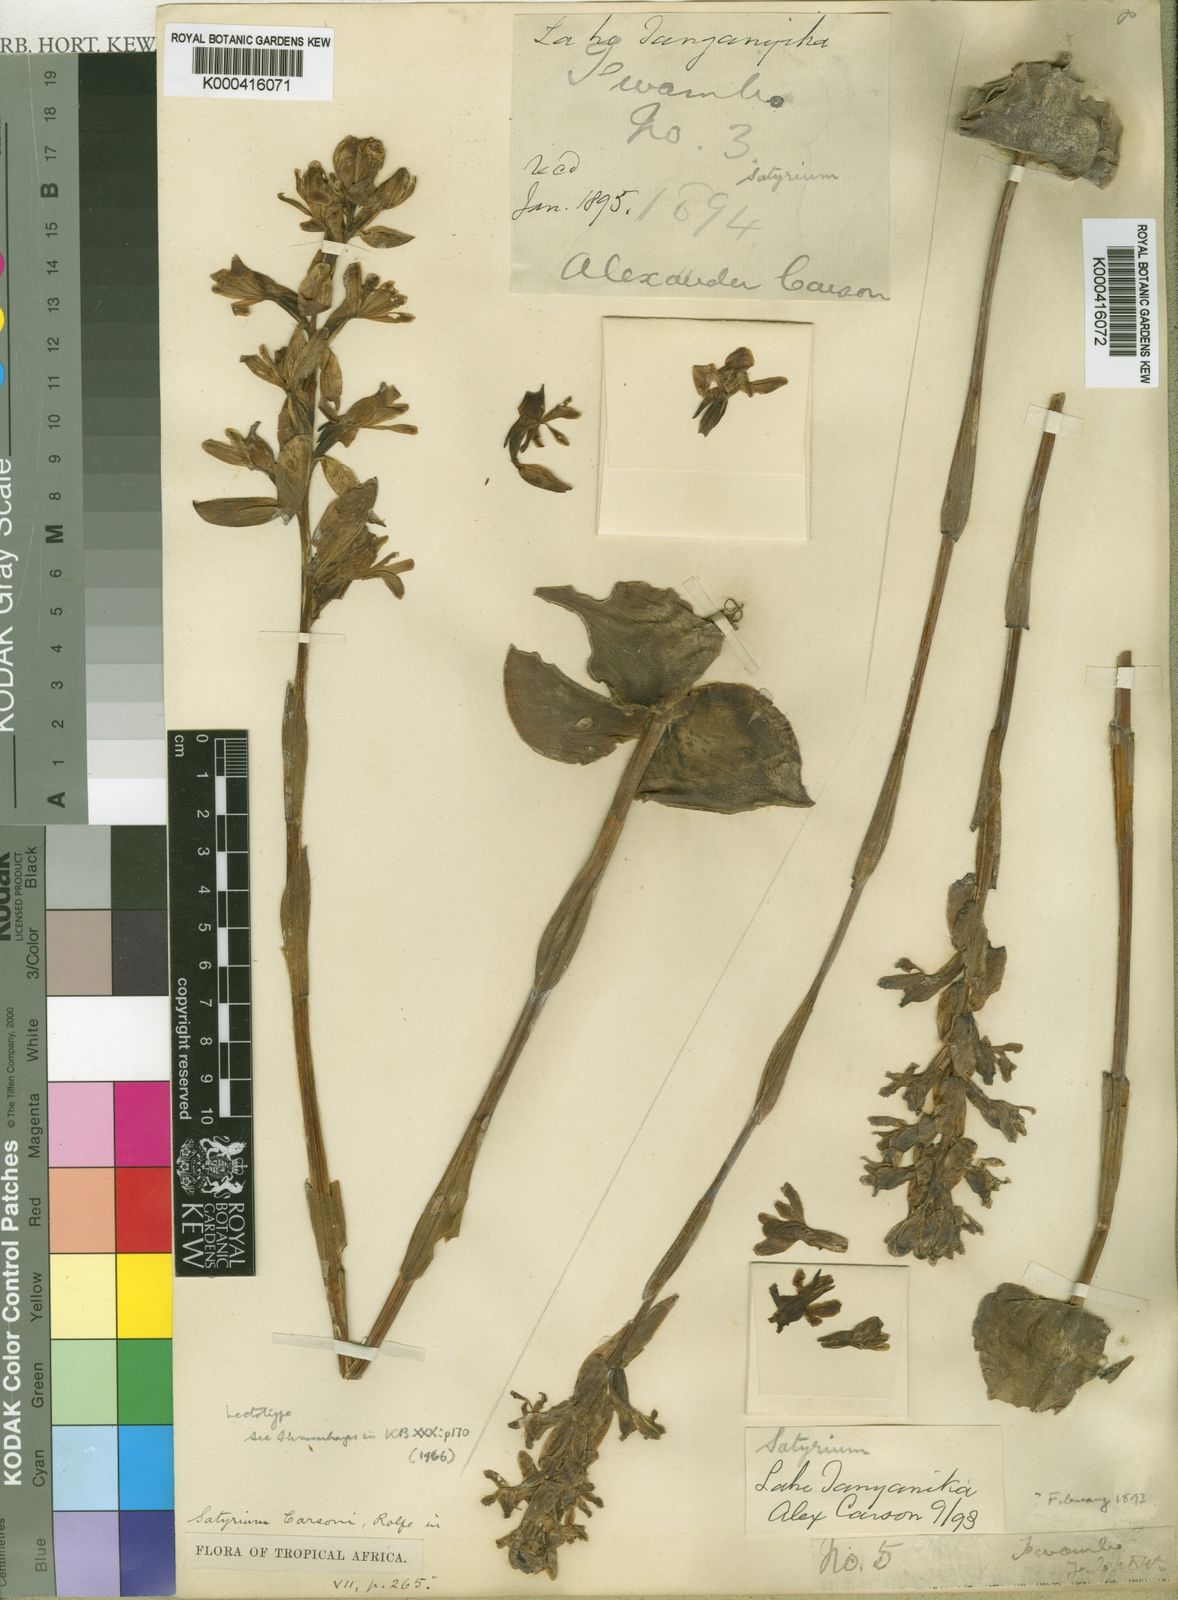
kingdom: Plantae
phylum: Tracheophyta
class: Liliopsida
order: Asparagales
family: Orchidaceae
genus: Satyrium
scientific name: Satyrium carsonii
